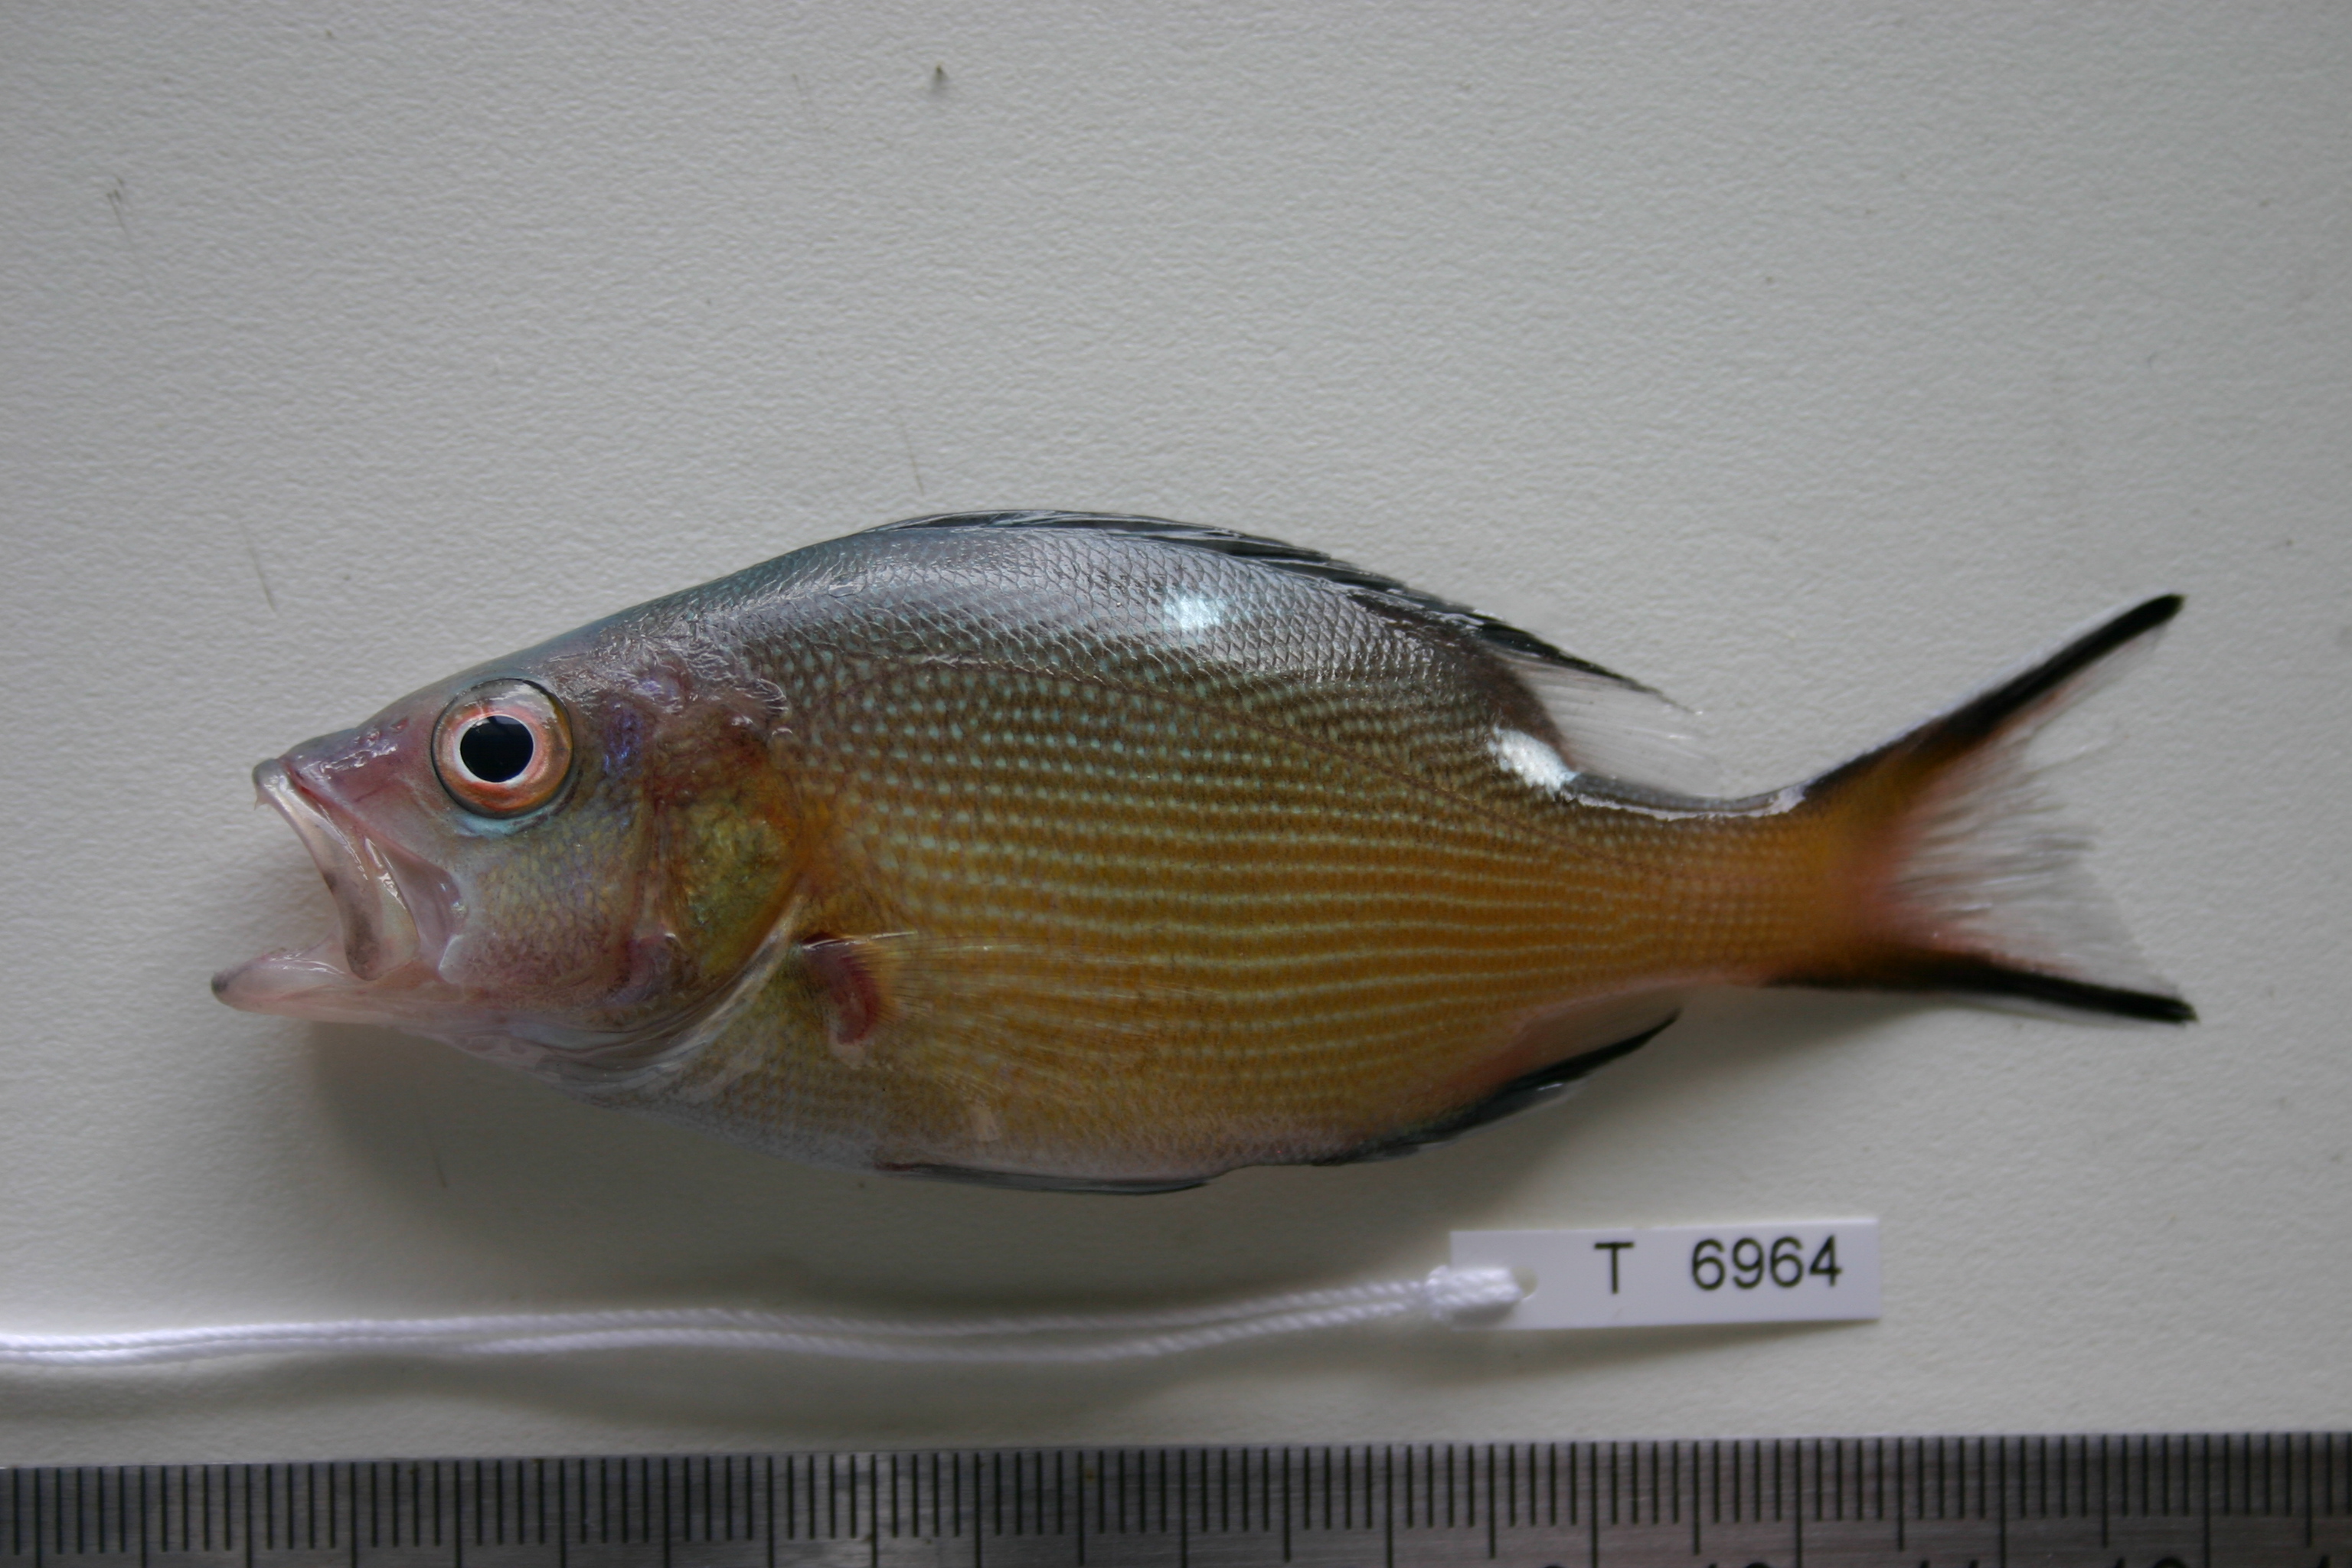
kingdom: Animalia
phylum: Chordata
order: Perciformes
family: Lutjanidae
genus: Lutjanus
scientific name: Lutjanus bohar
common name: Red bass
